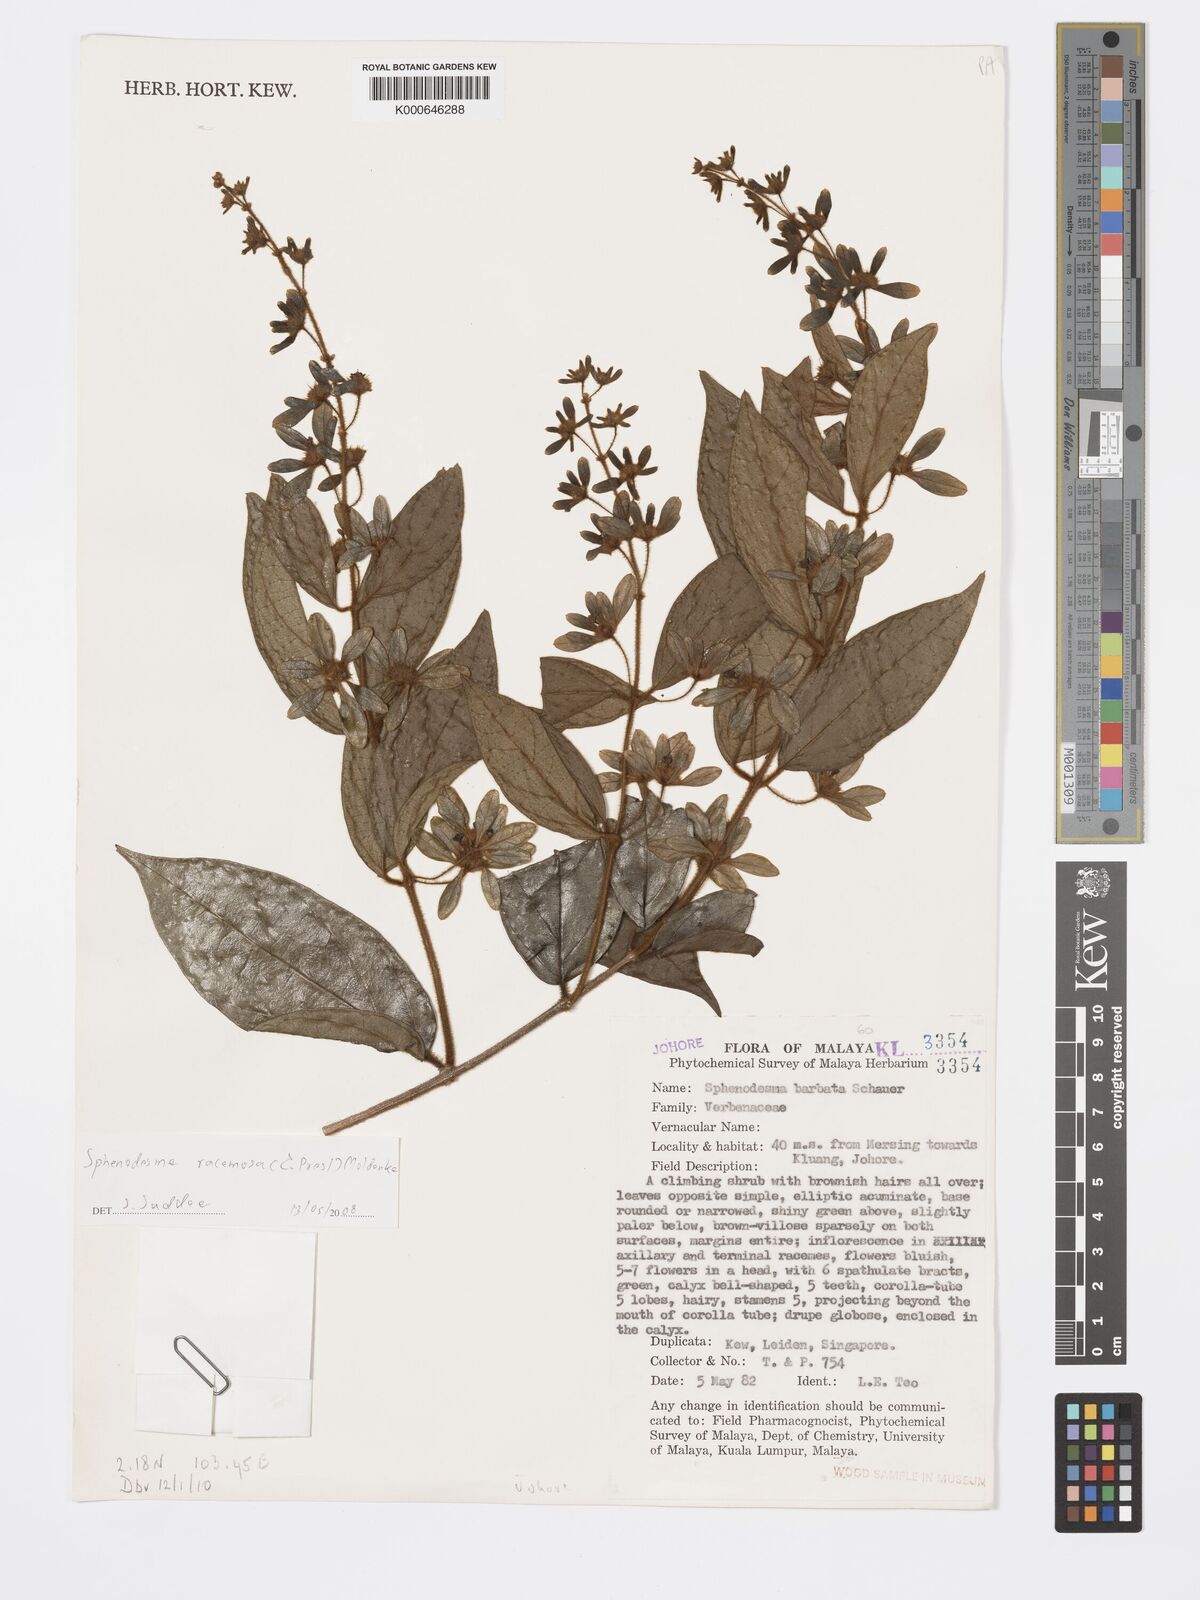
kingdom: Plantae
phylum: Tracheophyta
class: Magnoliopsida
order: Lamiales
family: Lamiaceae
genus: Sphenodesme
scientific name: Sphenodesme racemosa
